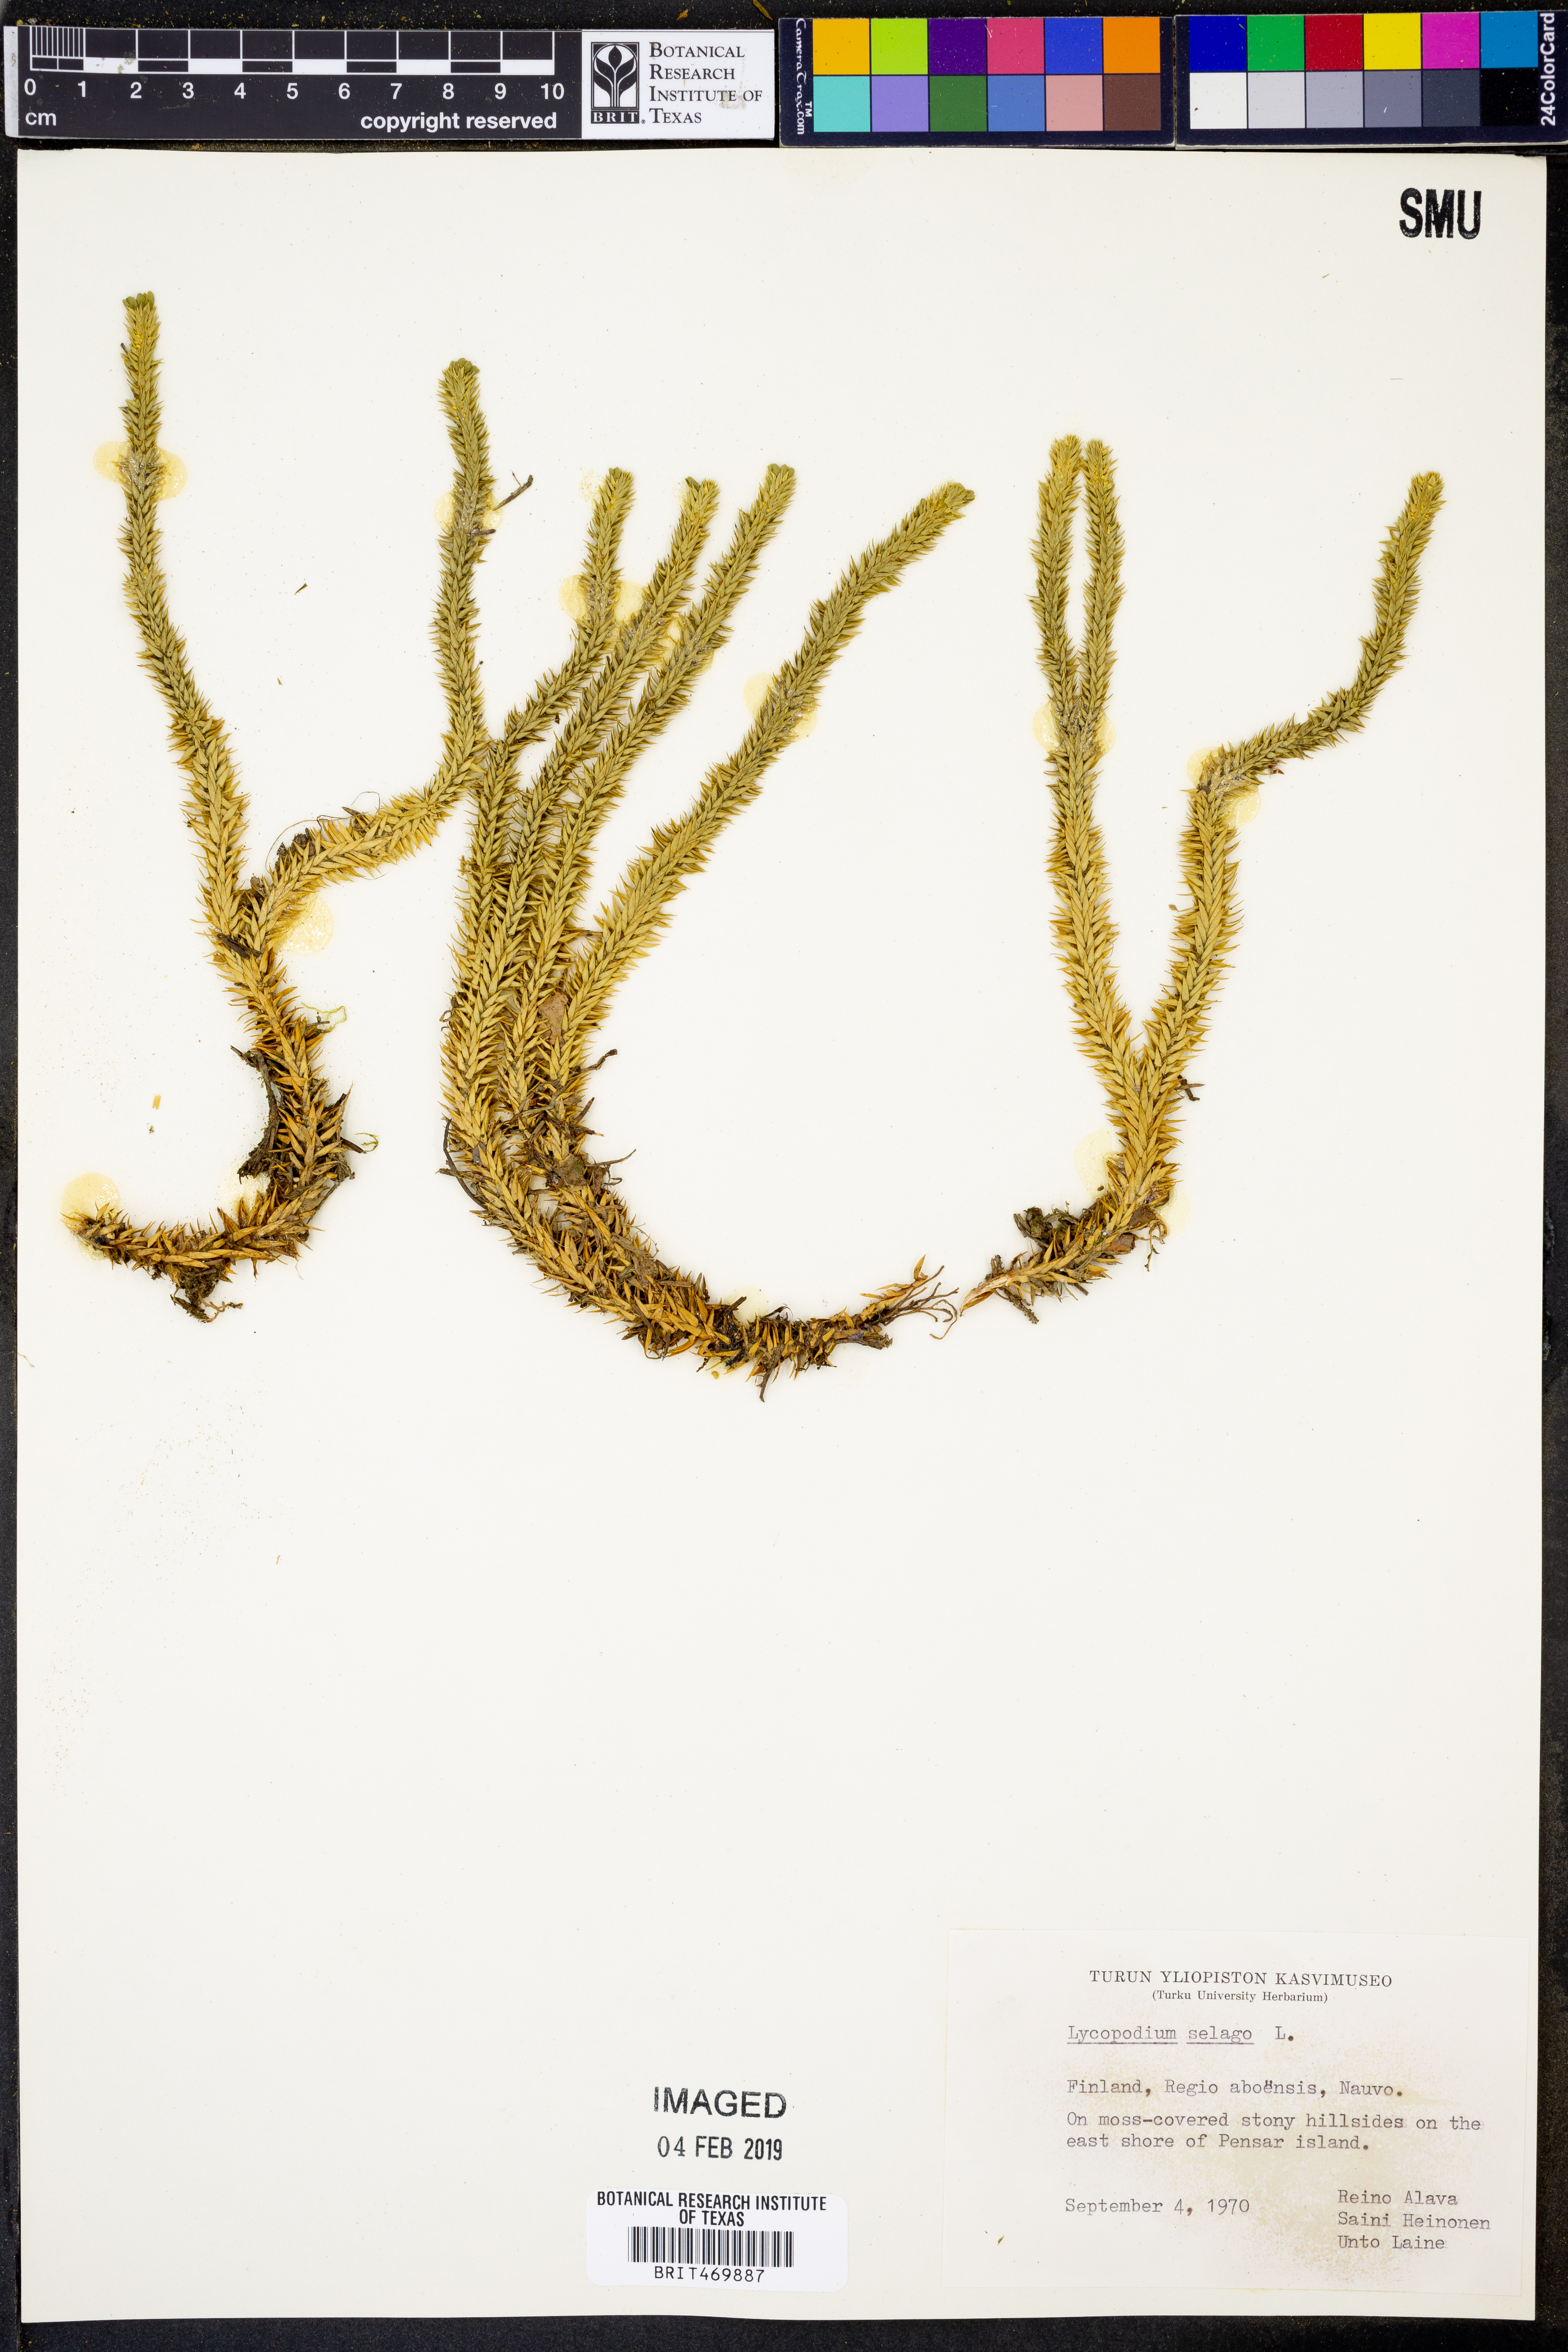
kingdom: Plantae
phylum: Tracheophyta
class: Lycopodiopsida
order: Lycopodiales
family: Lycopodiaceae
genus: Huperzia
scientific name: Huperzia selago
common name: Northern firmoss
